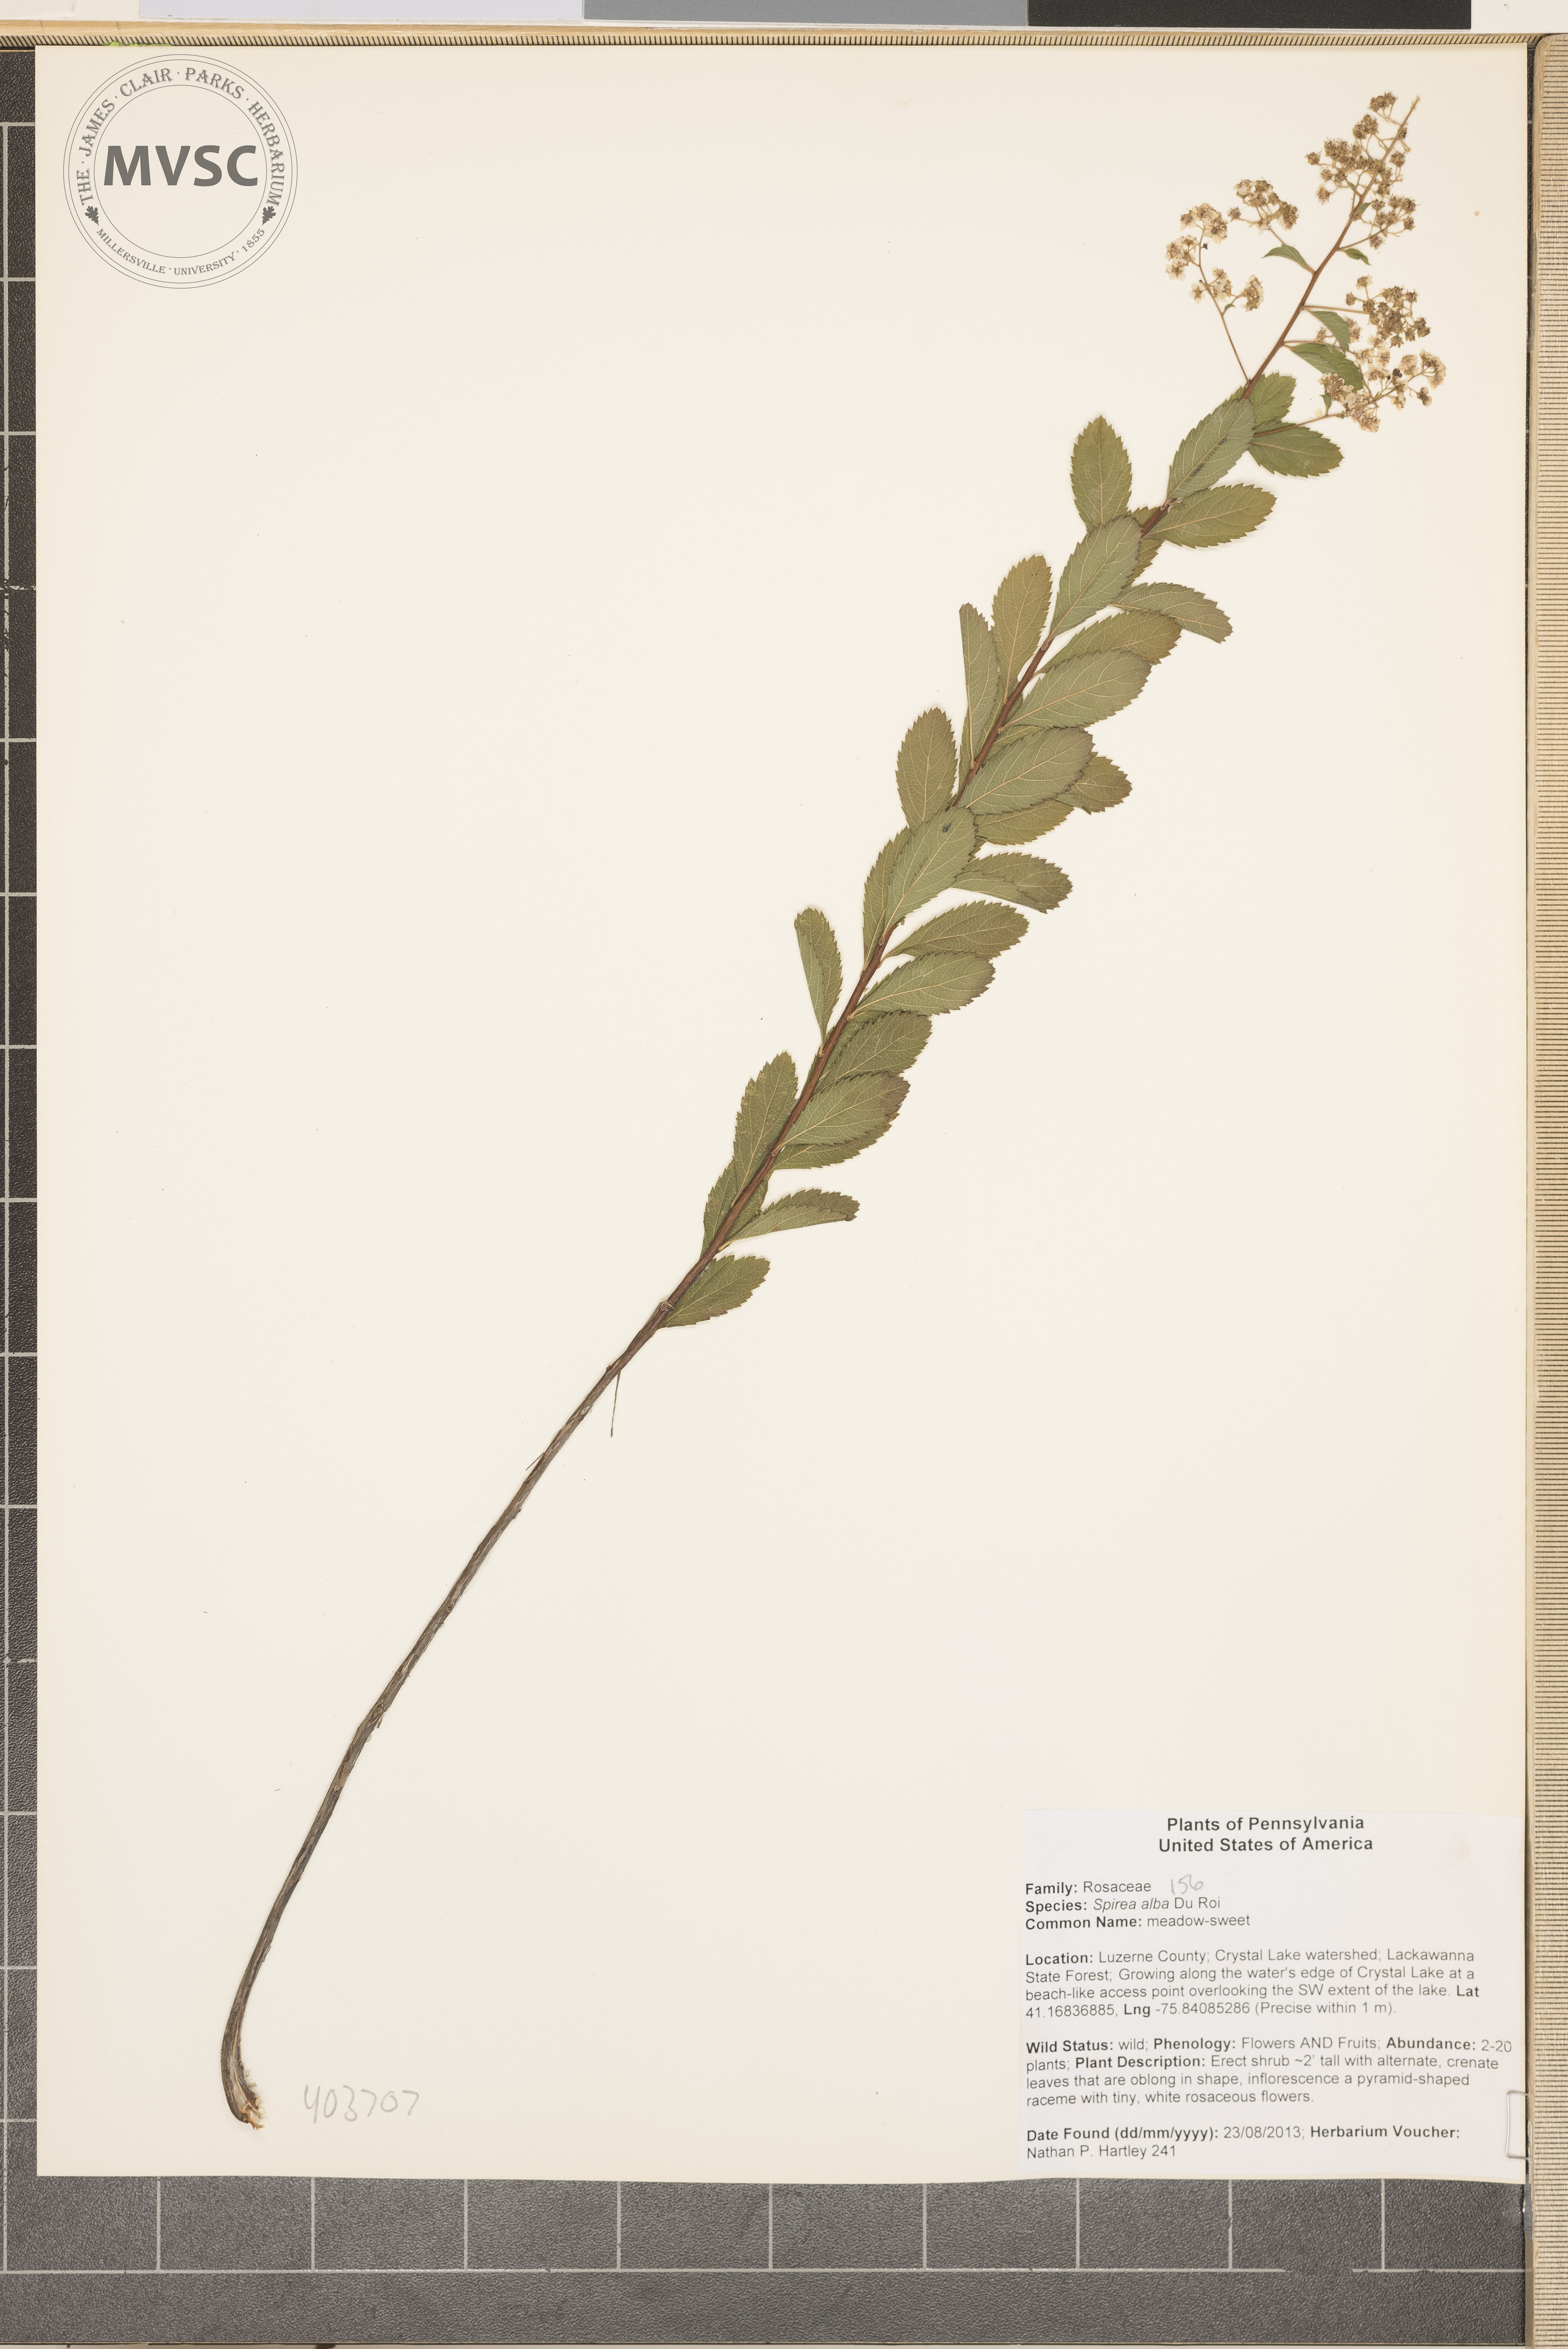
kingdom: Plantae
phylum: Tracheophyta
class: Magnoliopsida
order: Rosales
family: Rosaceae
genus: Spiraea
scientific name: Spiraea alba
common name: steeplebush
